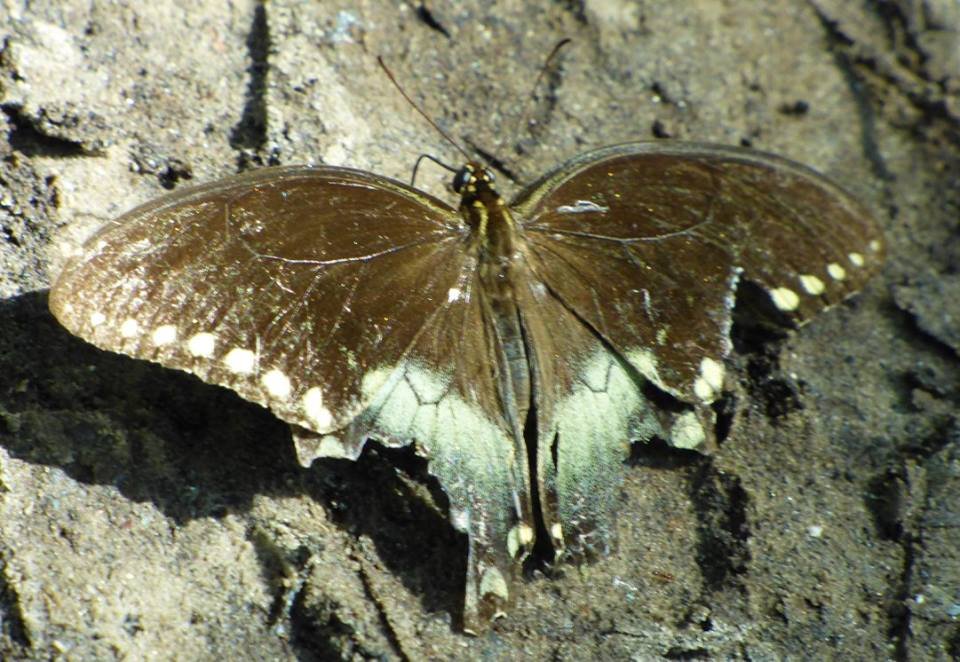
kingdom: Animalia
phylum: Arthropoda
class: Insecta
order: Lepidoptera
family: Papilionidae
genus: Pterourus
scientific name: Pterourus troilus
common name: Spicebush Swallowtail
